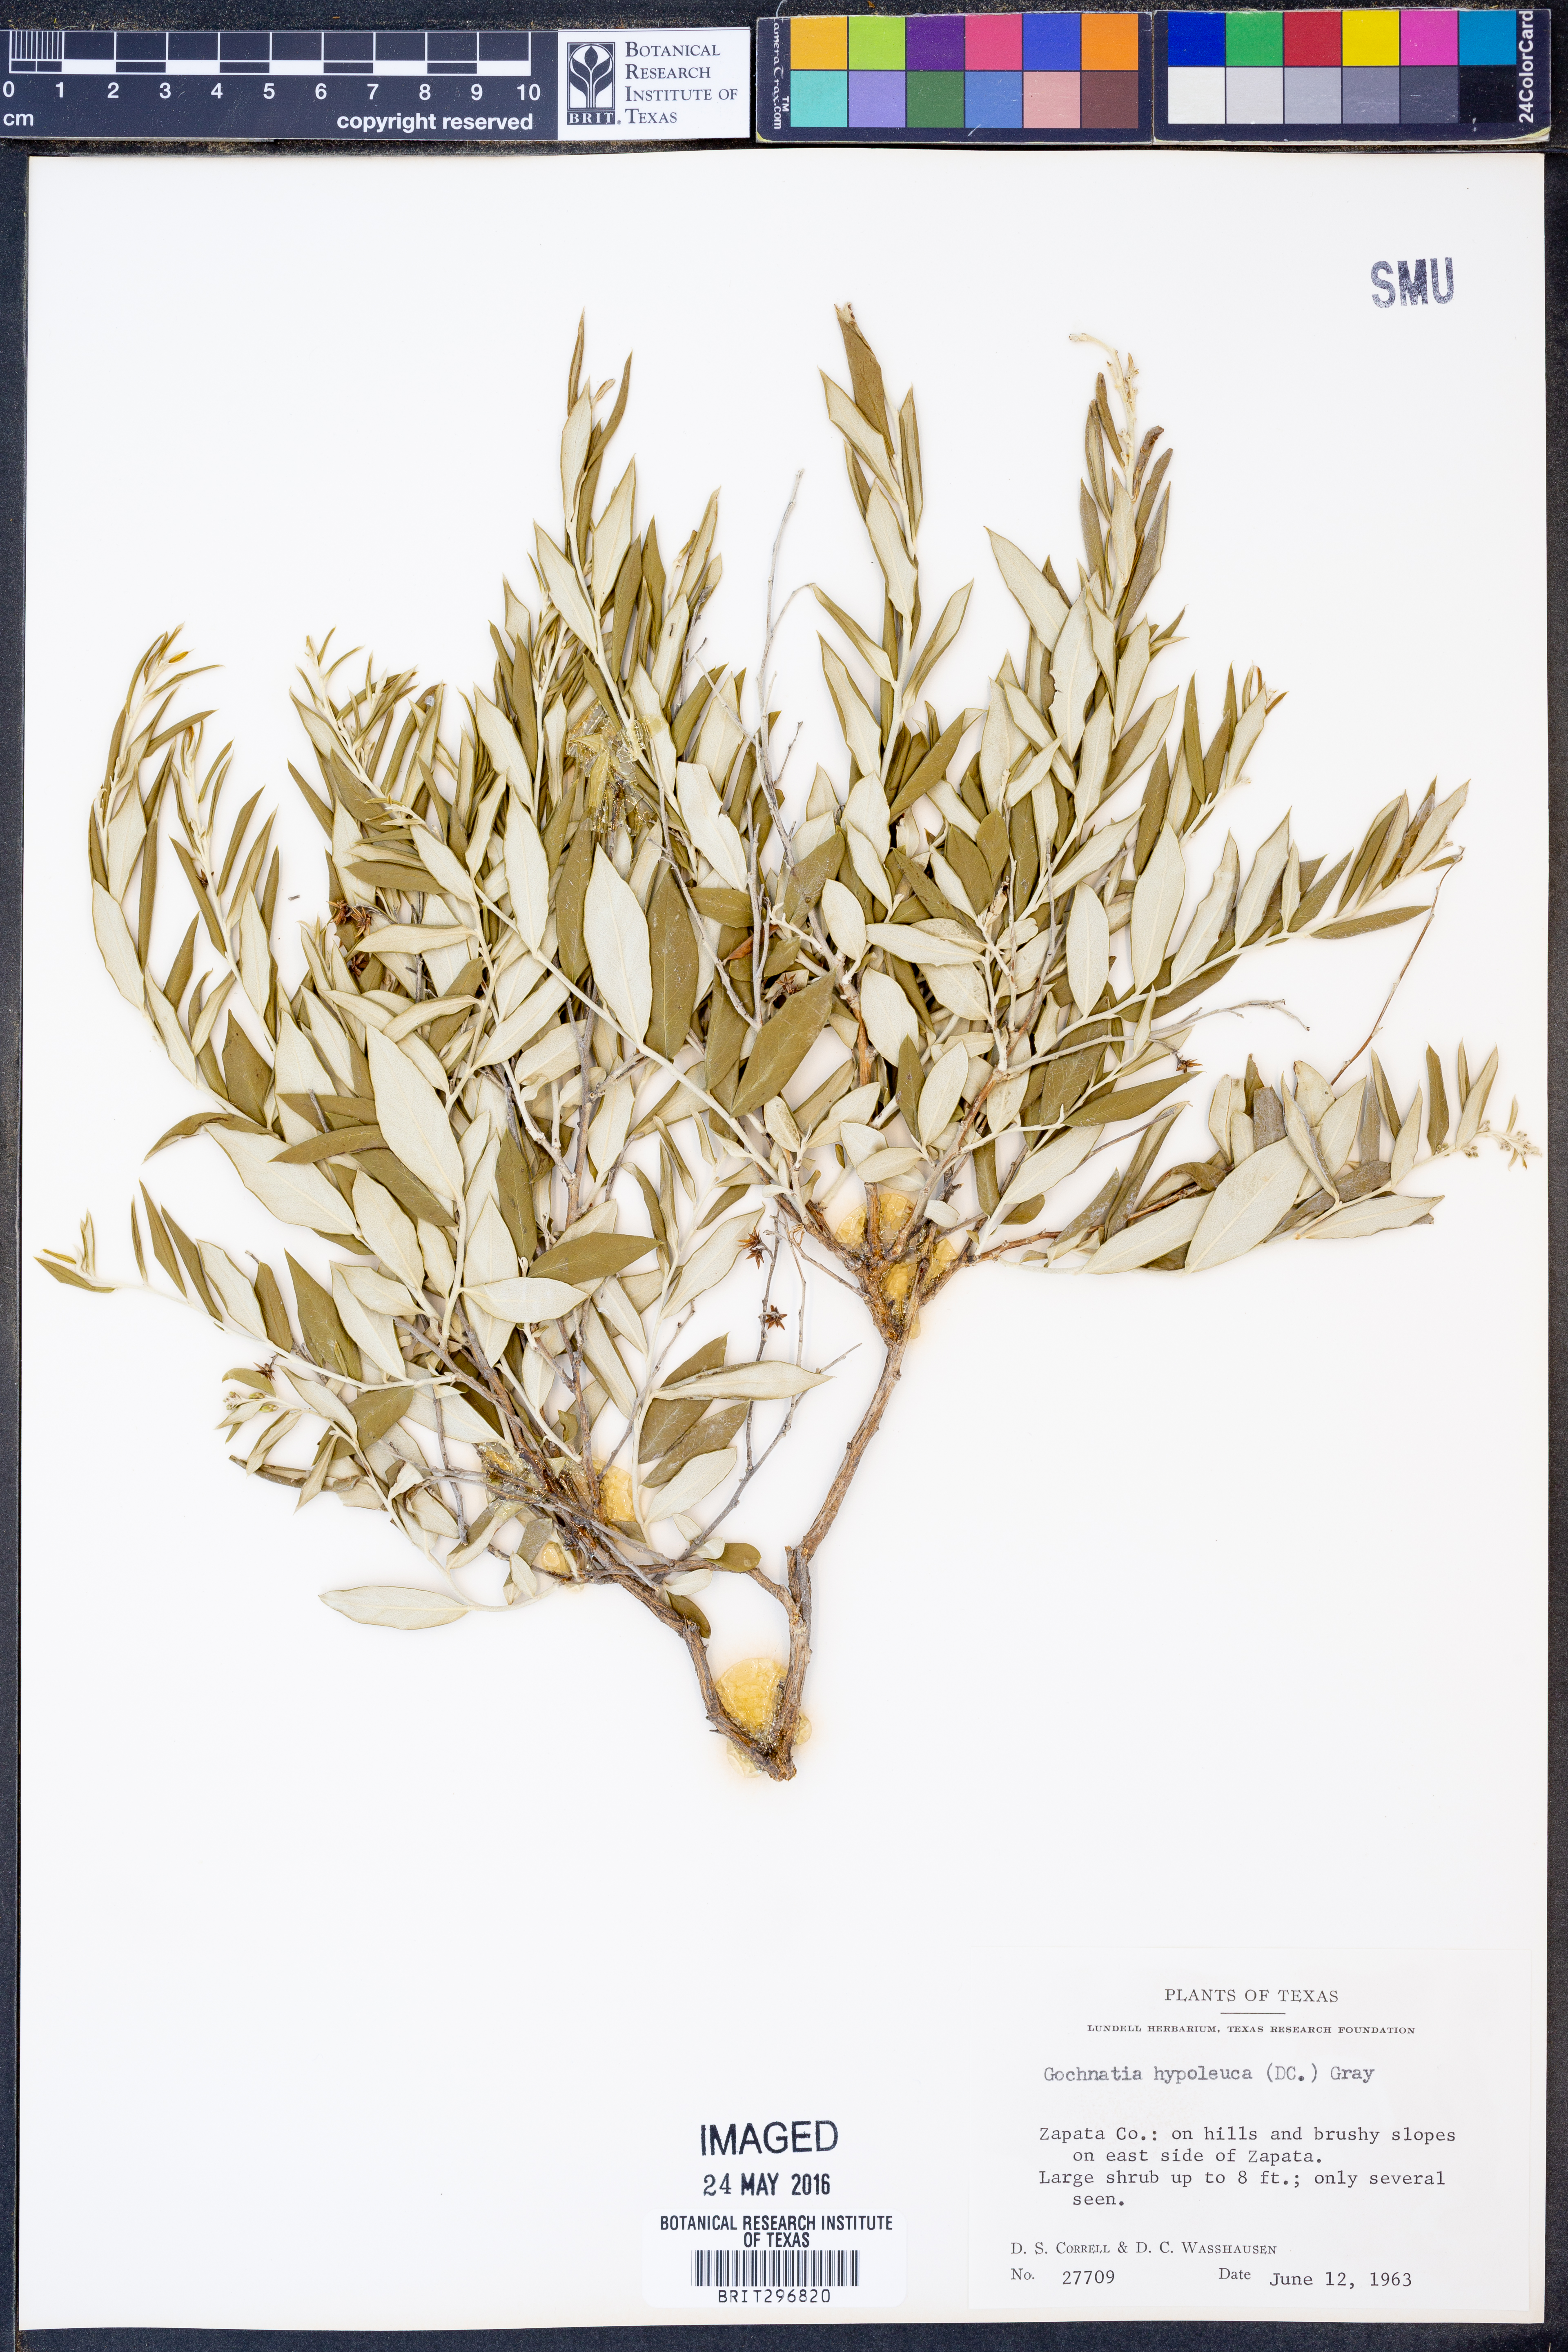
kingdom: Plantae
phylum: Tracheophyta
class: Magnoliopsida
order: Asterales
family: Asteraceae
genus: Nahuatlea
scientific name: Nahuatlea hypoleuca
